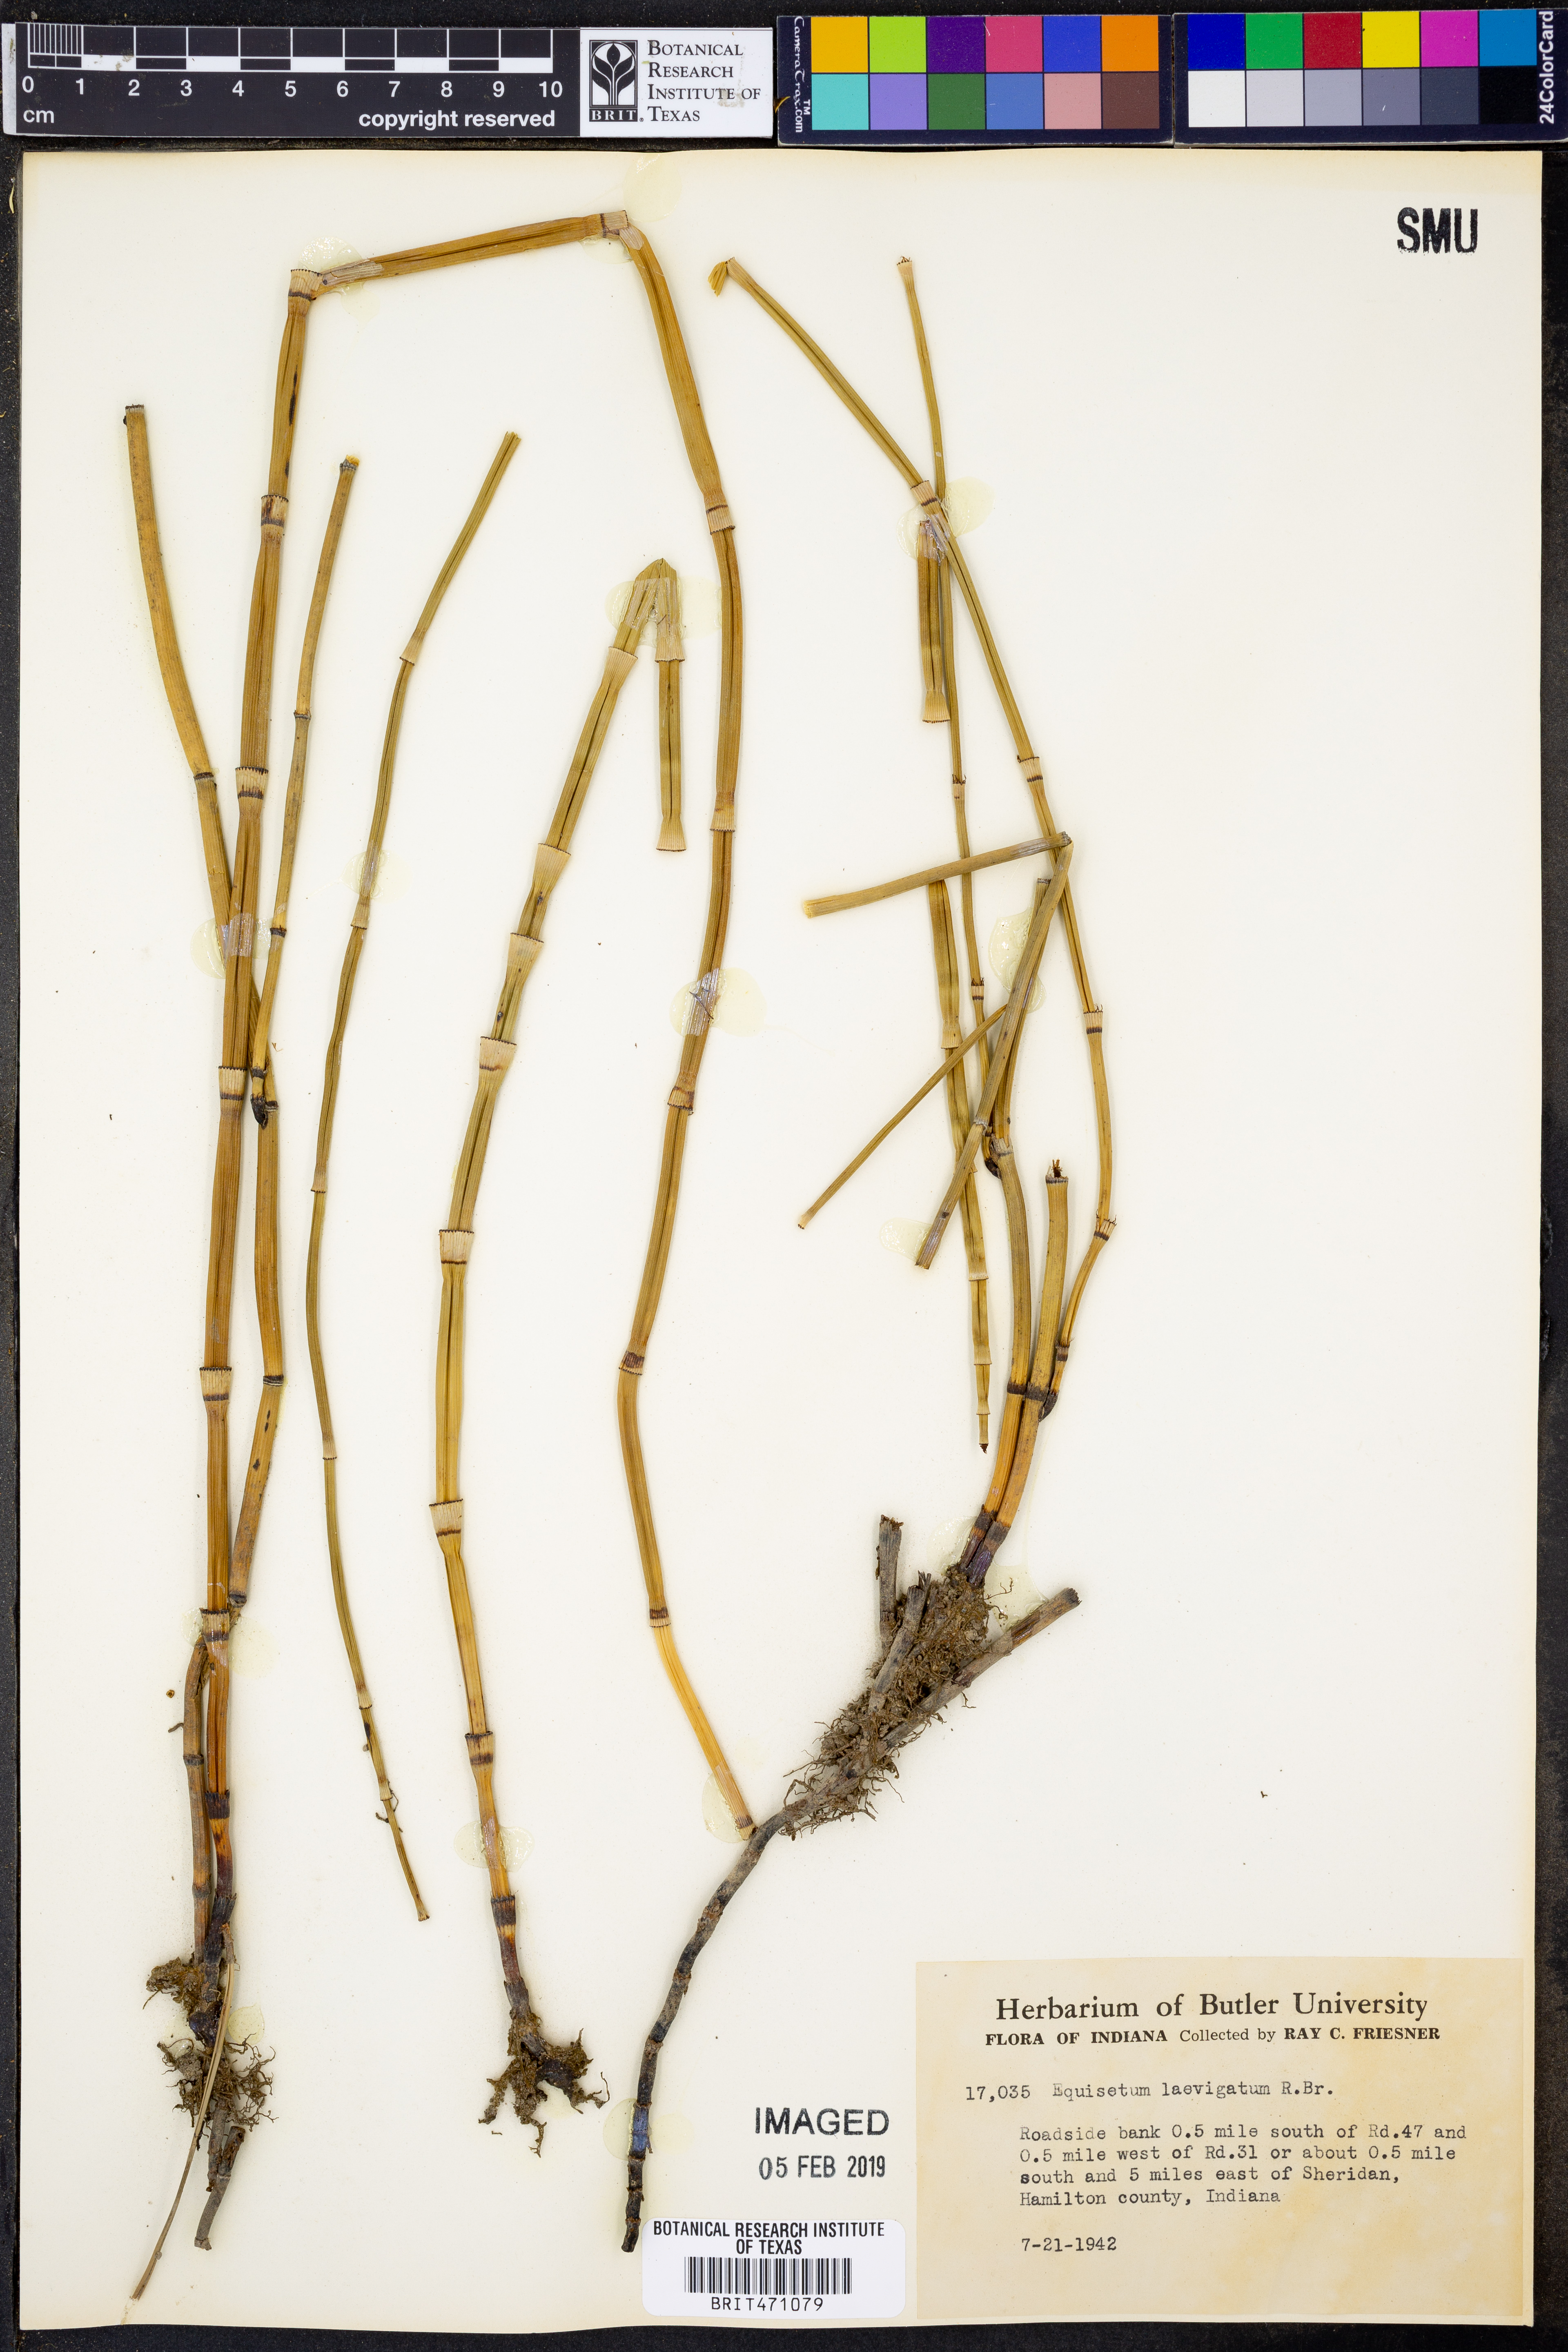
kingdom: Plantae
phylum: Tracheophyta
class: Polypodiopsida
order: Equisetales
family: Equisetaceae
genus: Equisetum
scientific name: Equisetum laevigatum
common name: Smooth scouring-rush
